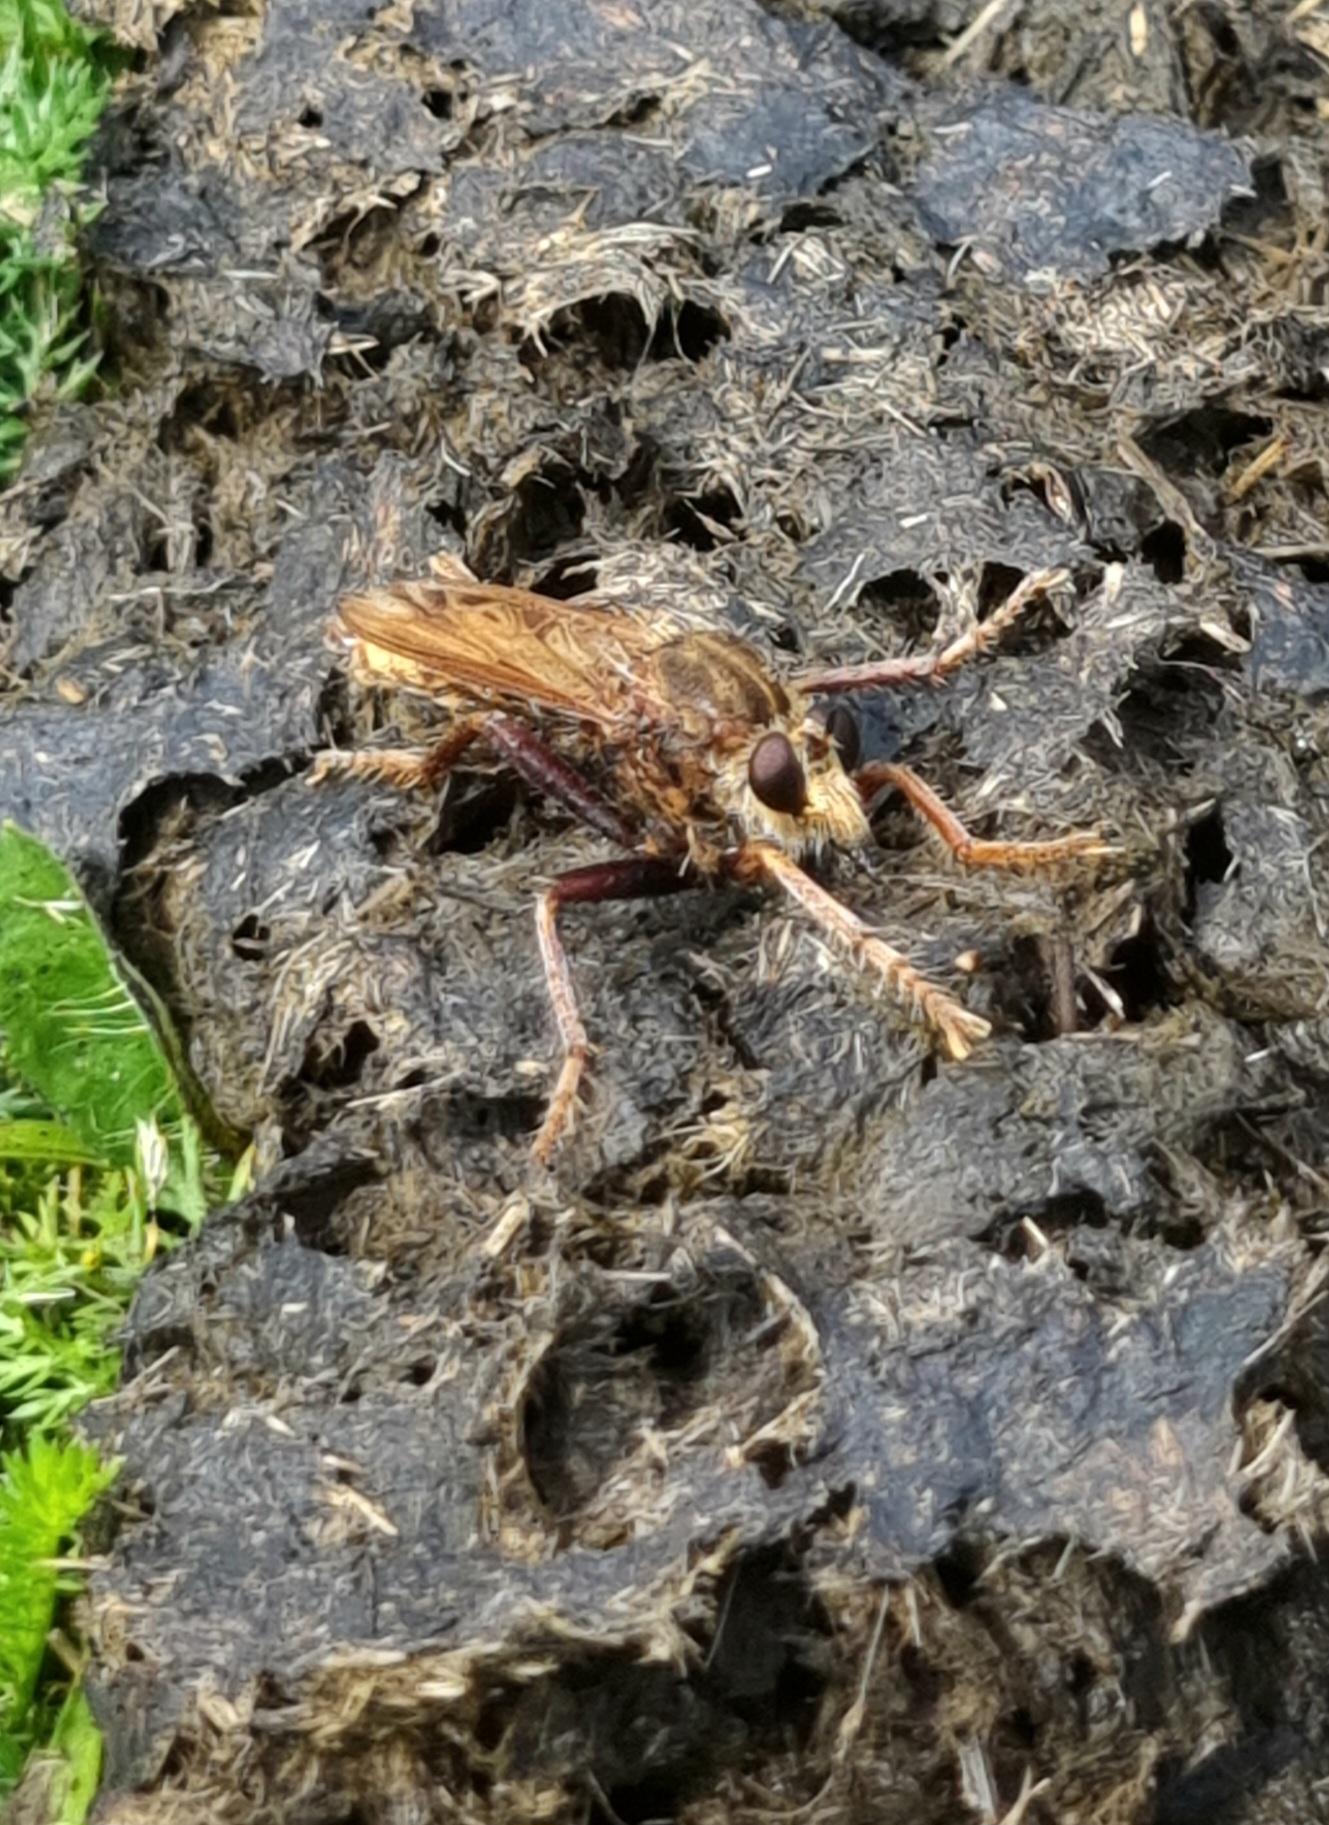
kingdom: Animalia
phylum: Arthropoda
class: Insecta
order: Diptera
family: Asilidae
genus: Asilus
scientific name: Asilus crabroniformis
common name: Stor gødningsrovflue
